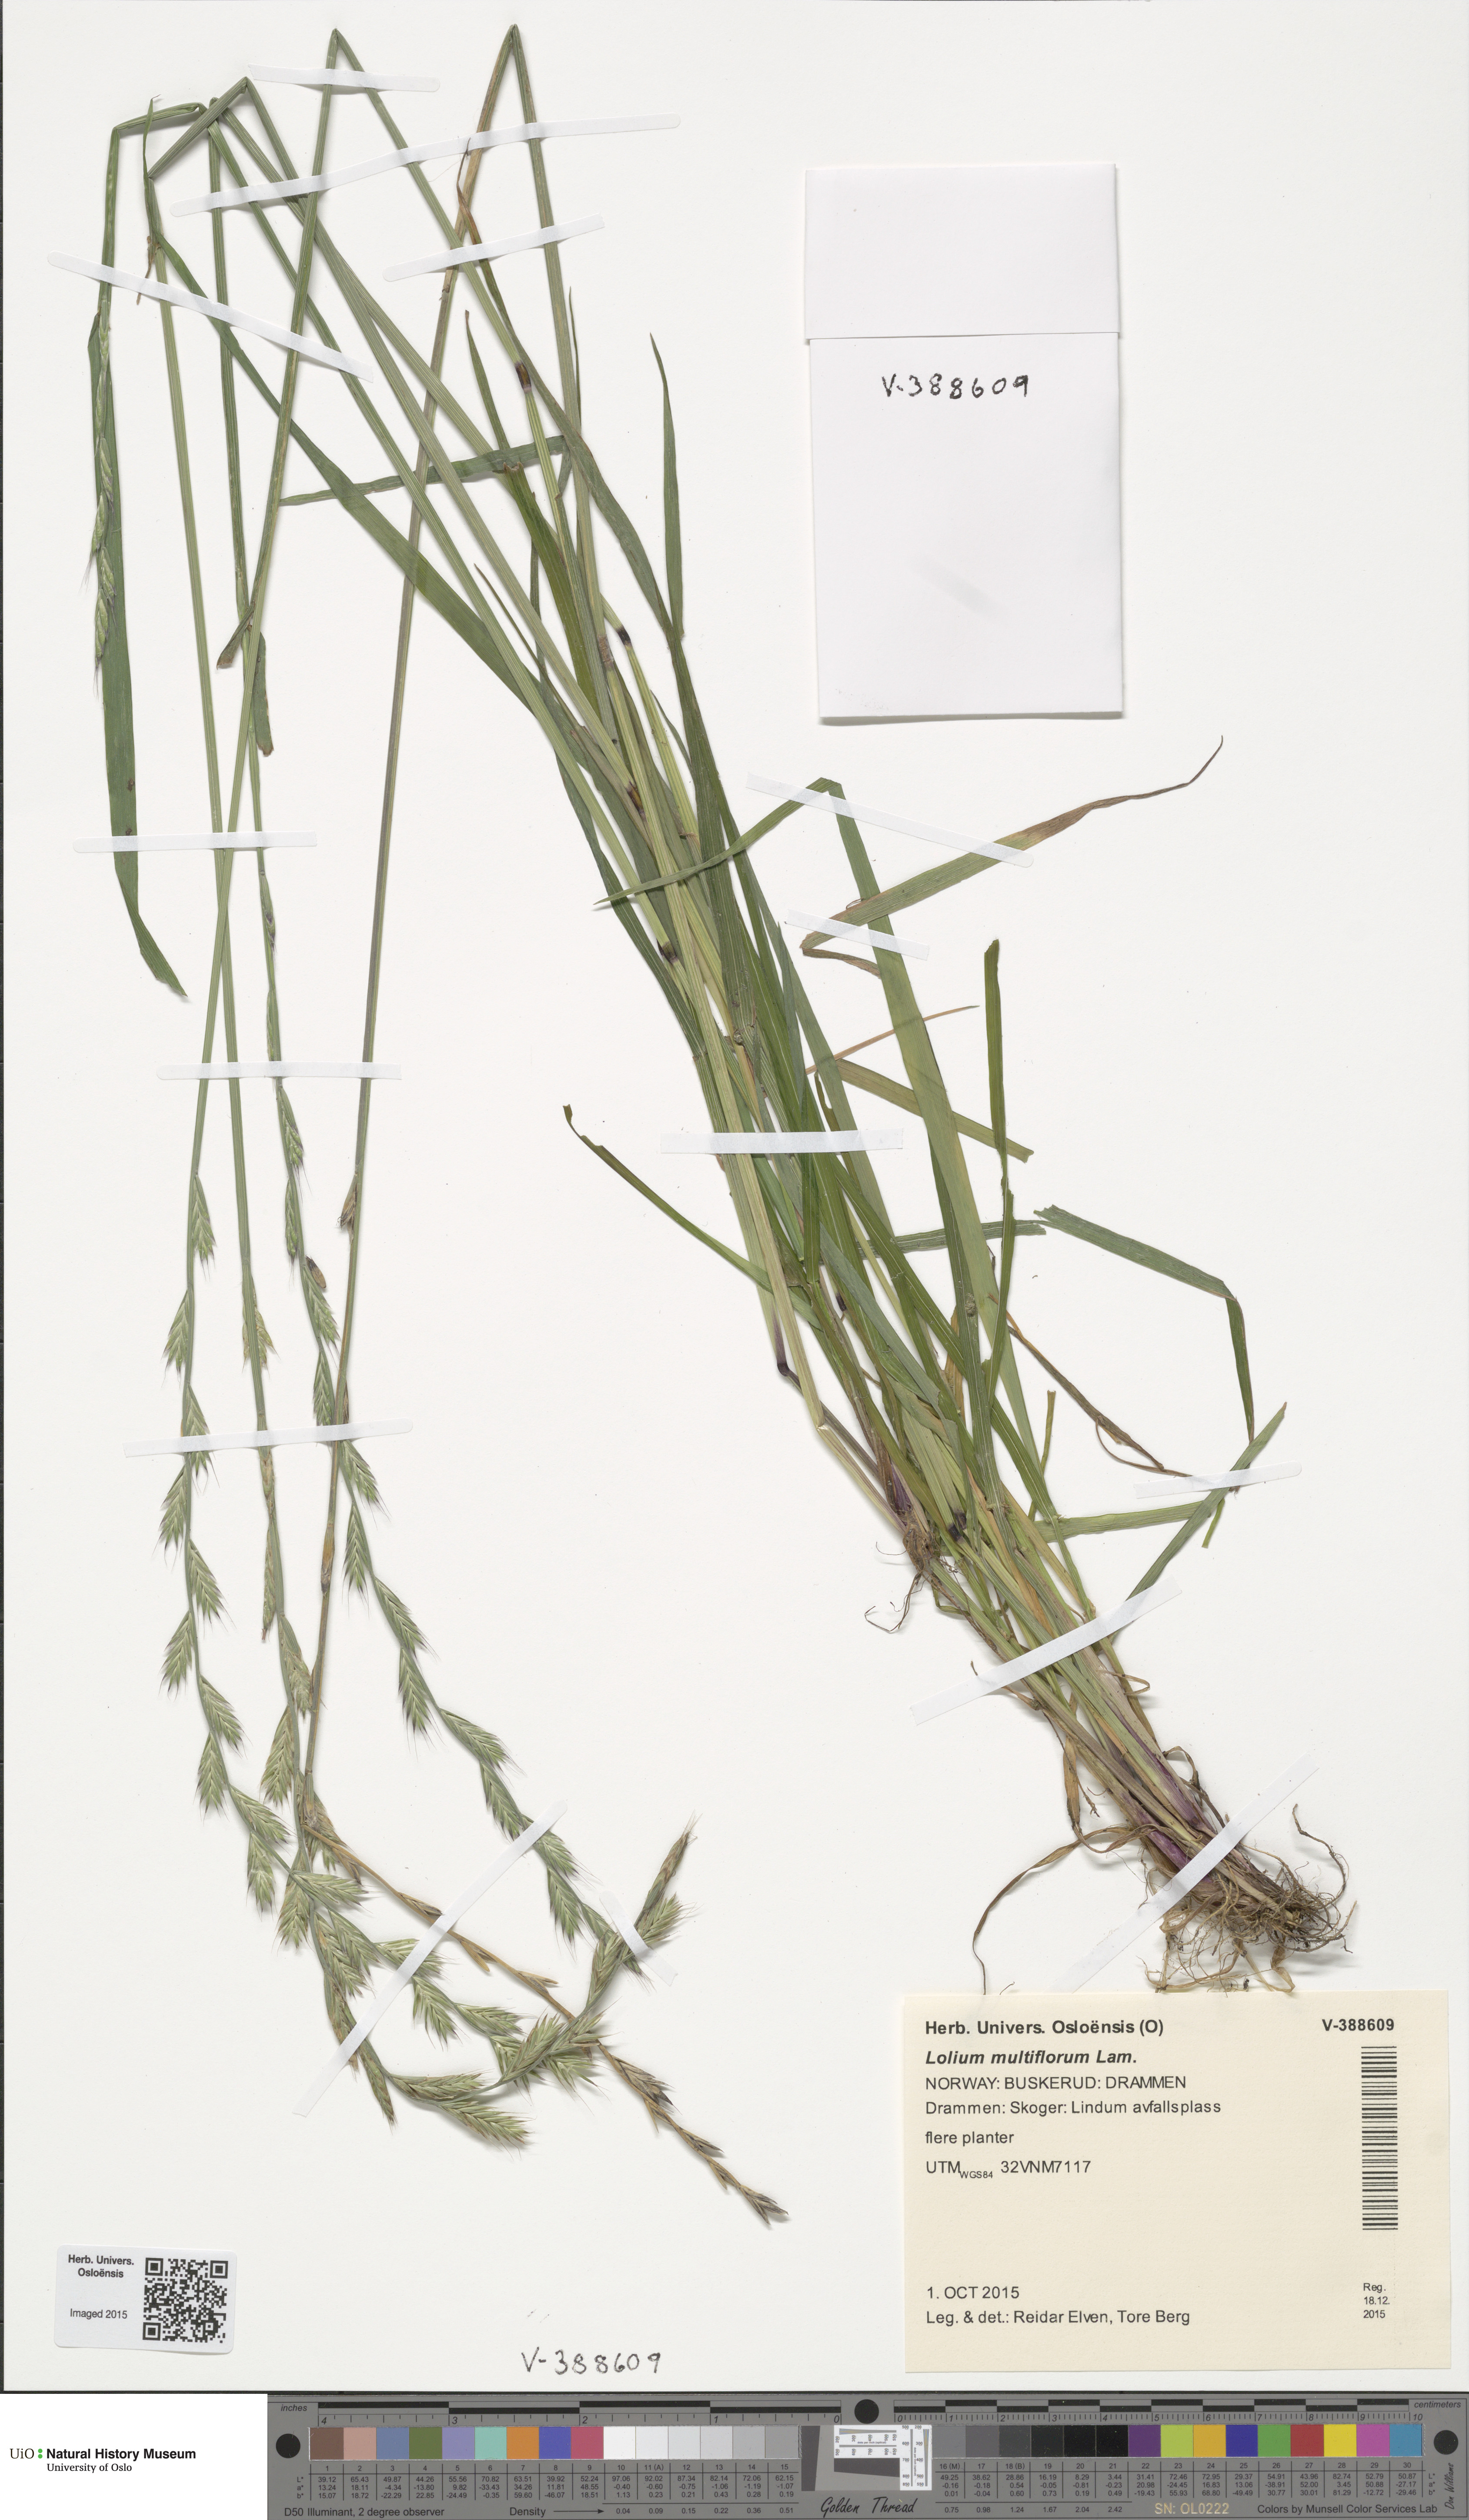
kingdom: Plantae
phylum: Tracheophyta
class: Liliopsida
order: Poales
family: Poaceae
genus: Lolium
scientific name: Lolium multiflorum
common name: Annual ryegrass
